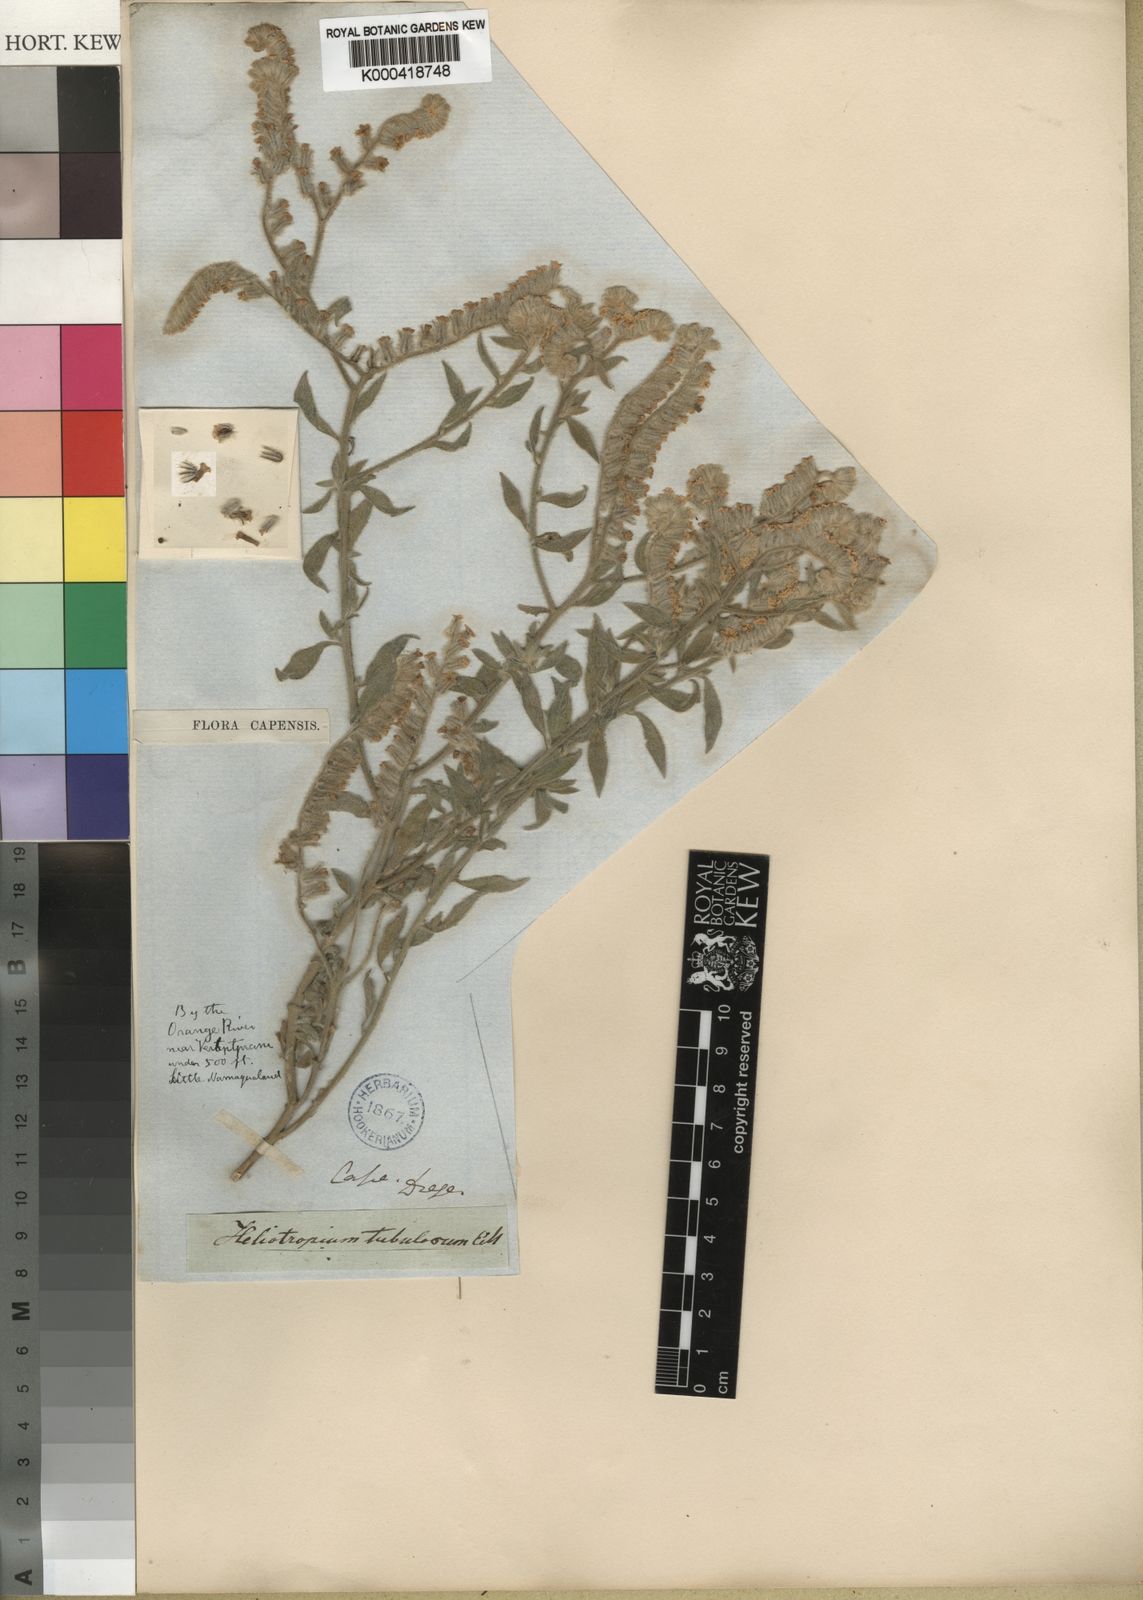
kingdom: Plantae
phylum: Tracheophyta
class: Magnoliopsida
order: Boraginales
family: Heliotropiaceae
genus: Heliotropium
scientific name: Heliotropium tubulosum
